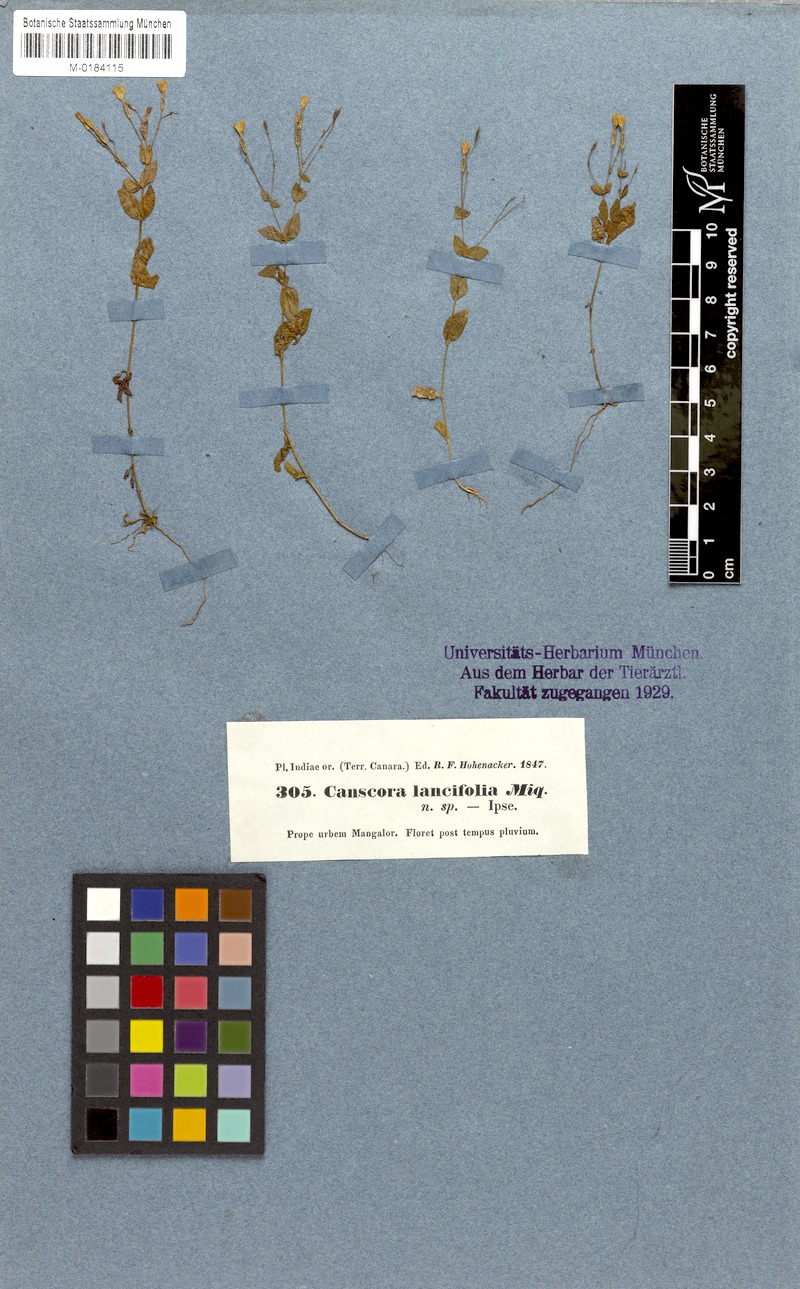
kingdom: Plantae
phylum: Tracheophyta
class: Magnoliopsida
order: Gentianales
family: Gentianaceae
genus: Canscora
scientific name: Canscora diffusa
